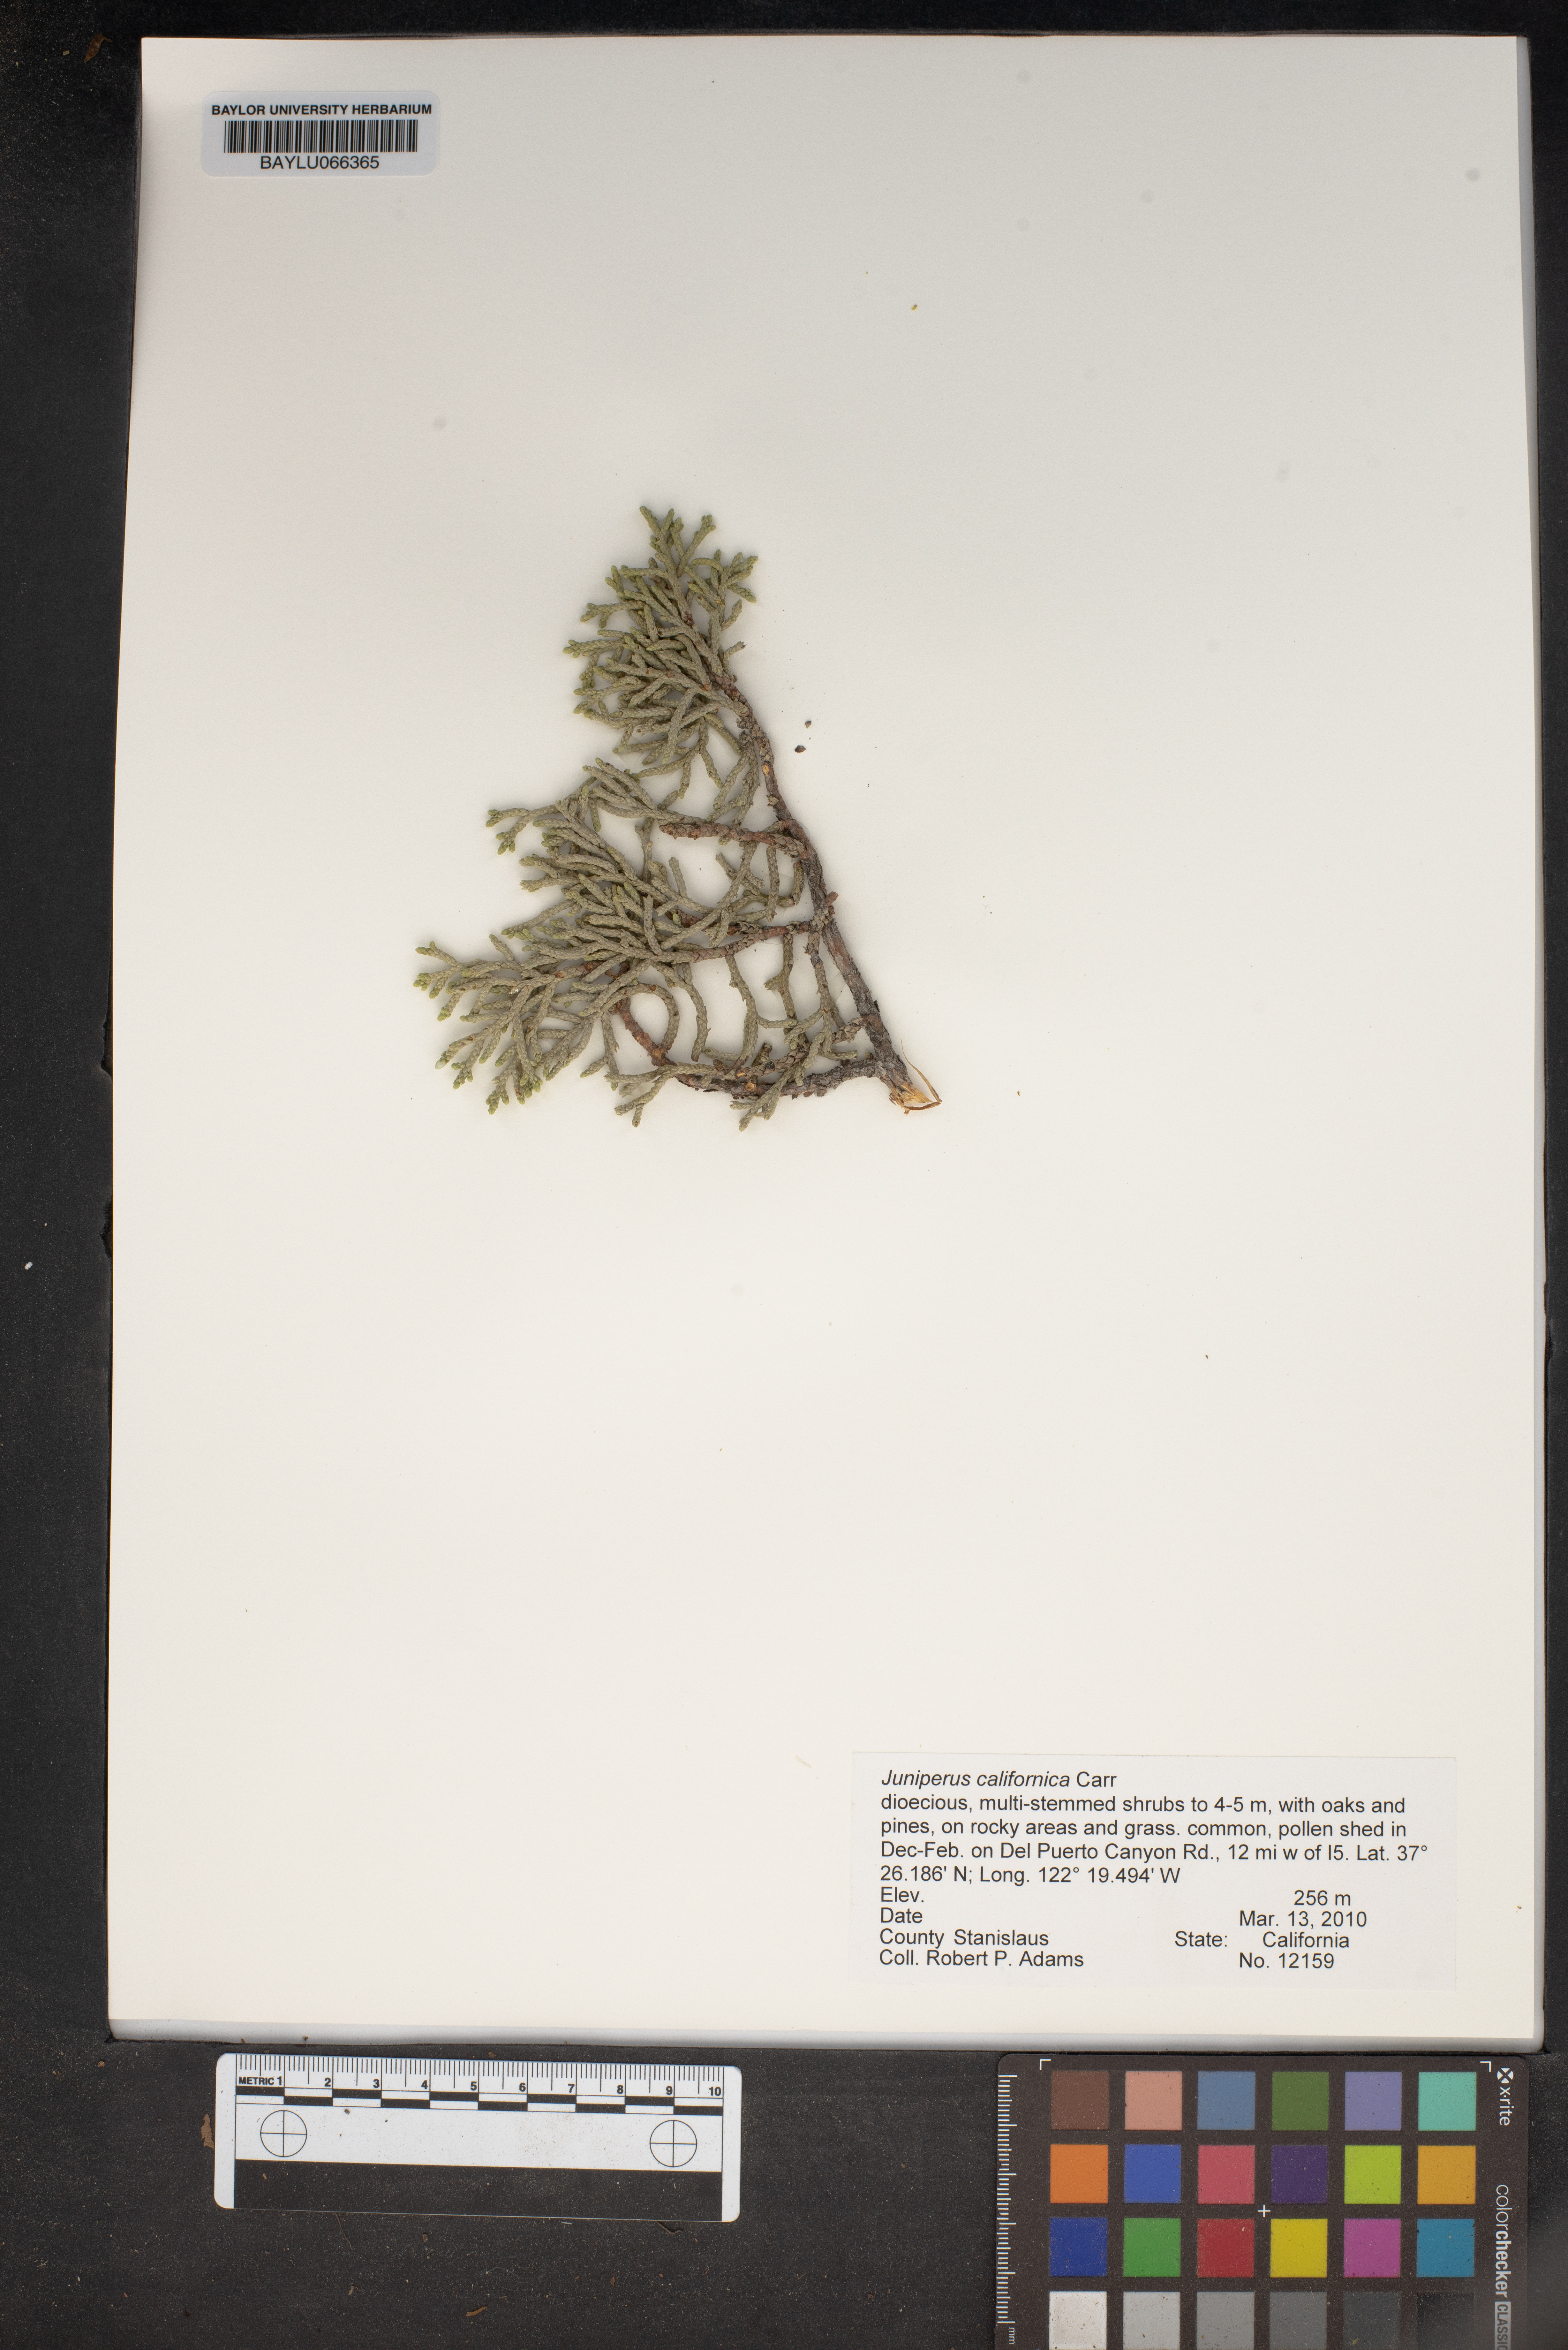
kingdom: Plantae
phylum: Tracheophyta
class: Pinopsida
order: Pinales
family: Cupressaceae
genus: Juniperus
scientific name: Juniperus californica
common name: California juniper
